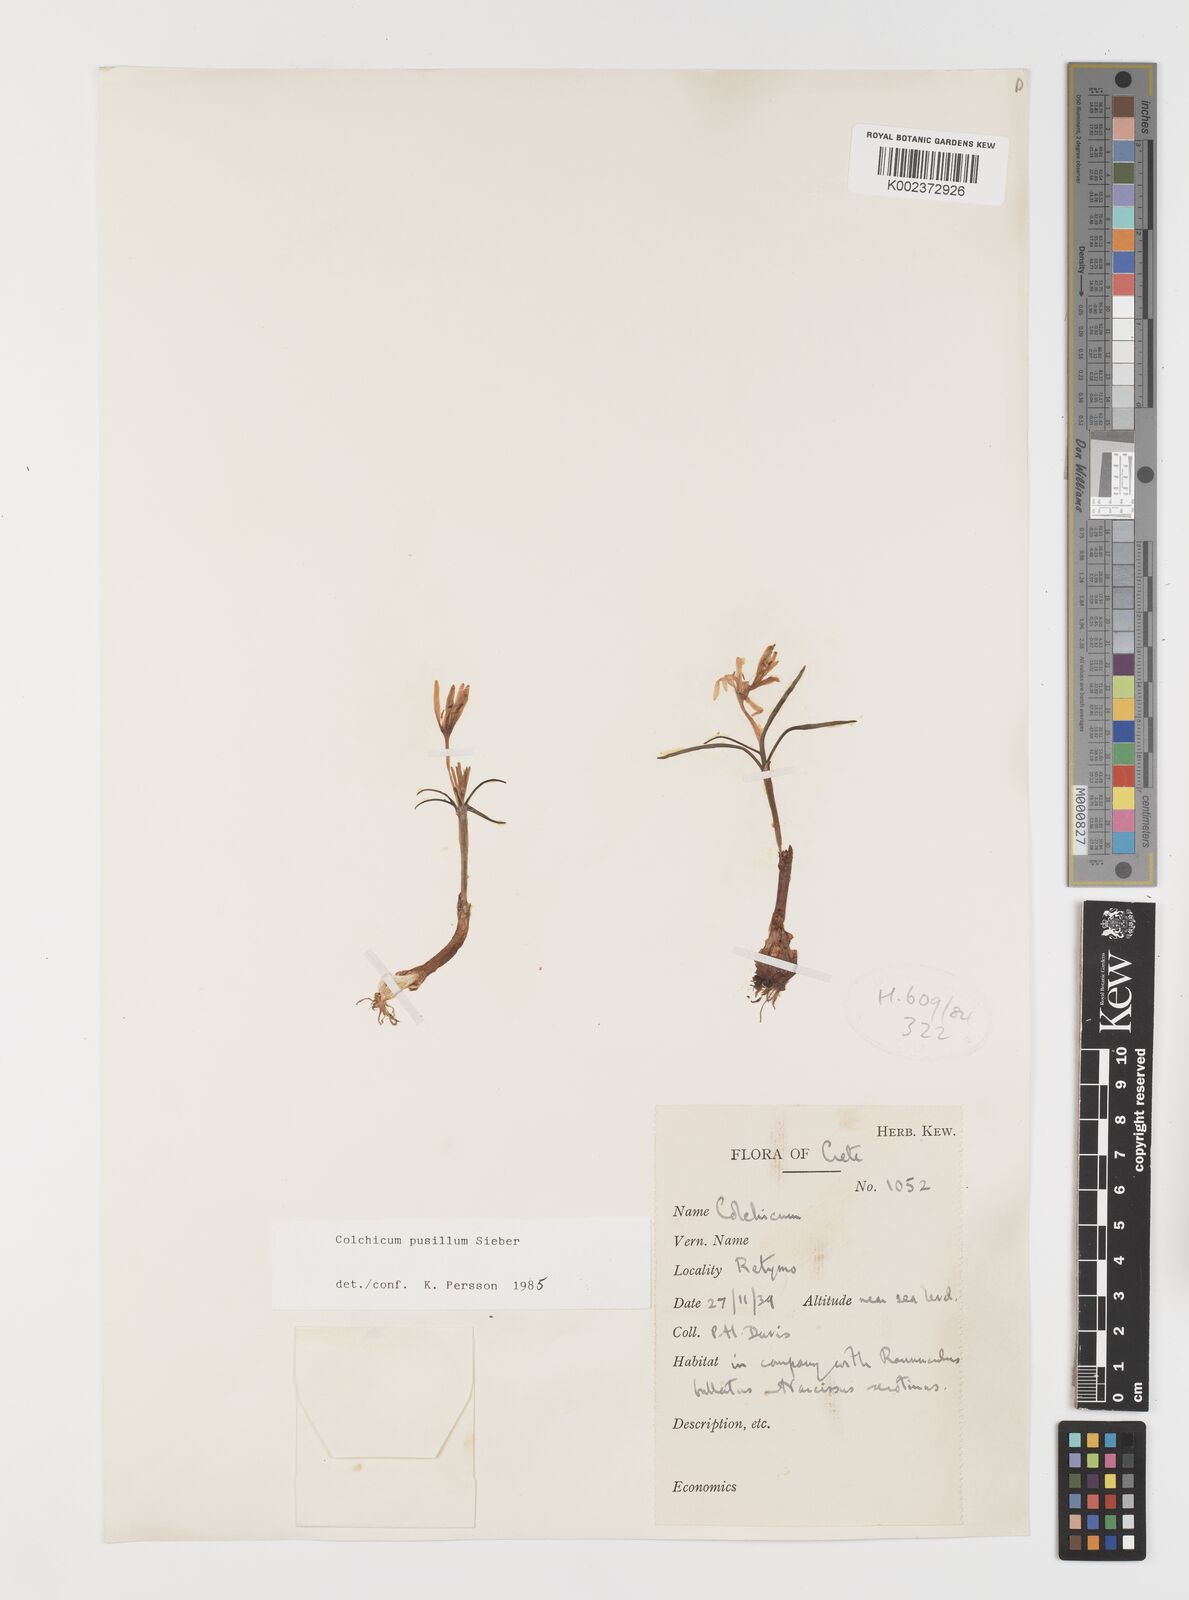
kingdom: Plantae
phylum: Tracheophyta
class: Liliopsida
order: Liliales
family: Colchicaceae
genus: Colchicum
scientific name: Colchicum pusillum
